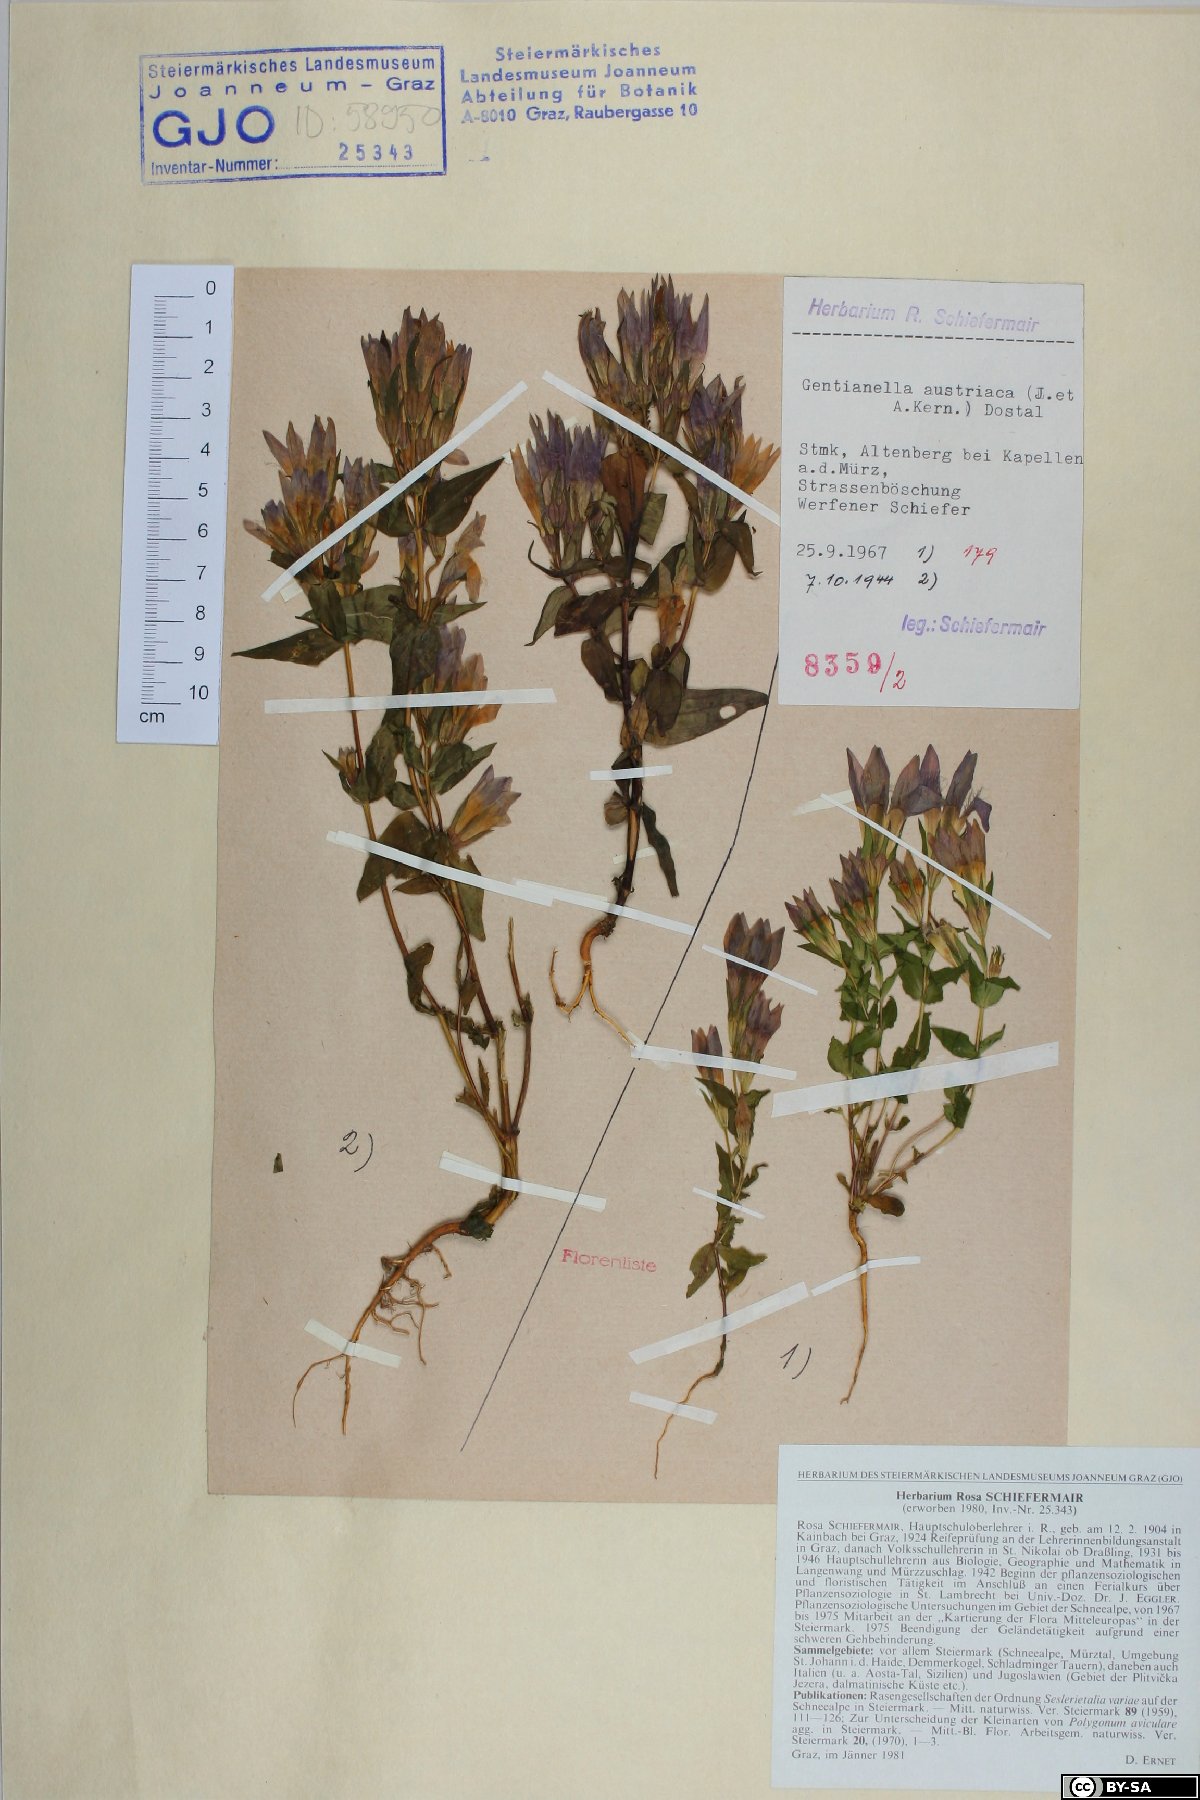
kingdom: Plantae
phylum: Tracheophyta
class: Magnoliopsida
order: Gentianales
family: Gentianaceae
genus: Gentianella
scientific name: Gentianella austriaca
